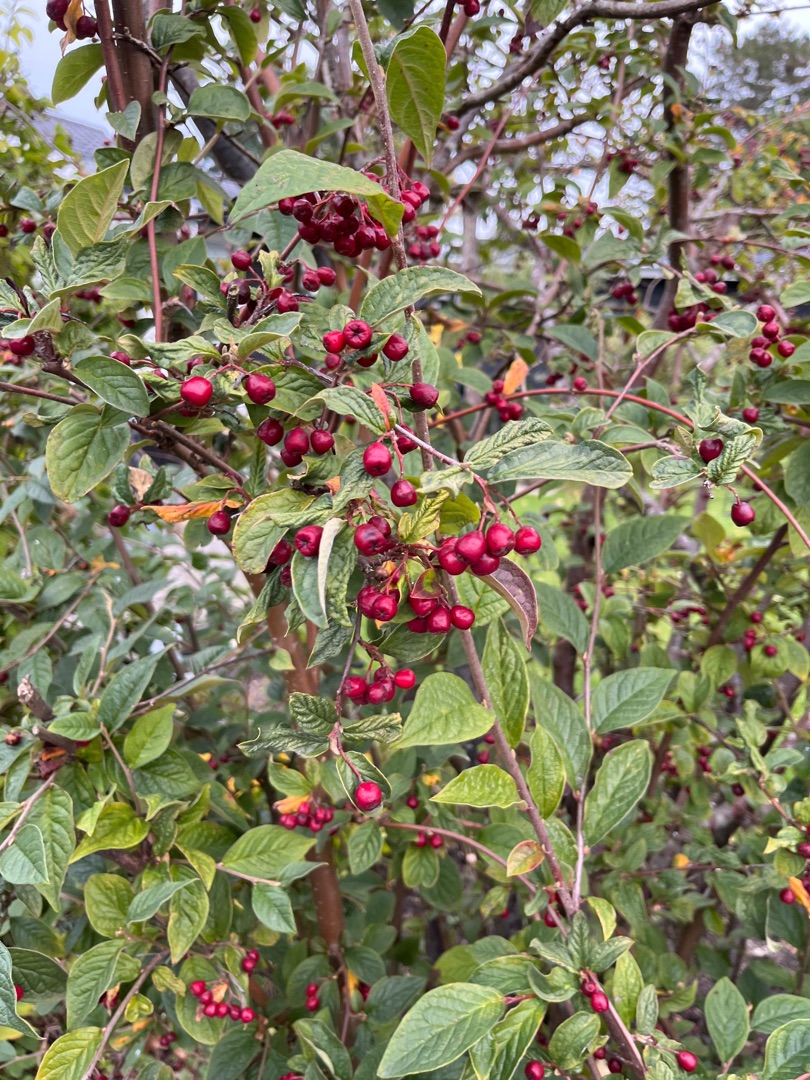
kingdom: Plantae
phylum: Tracheophyta
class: Magnoliopsida
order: Rosales
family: Rosaceae
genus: Cotoneaster
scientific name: Cotoneaster bullatus
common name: Buklet dværgmispel
